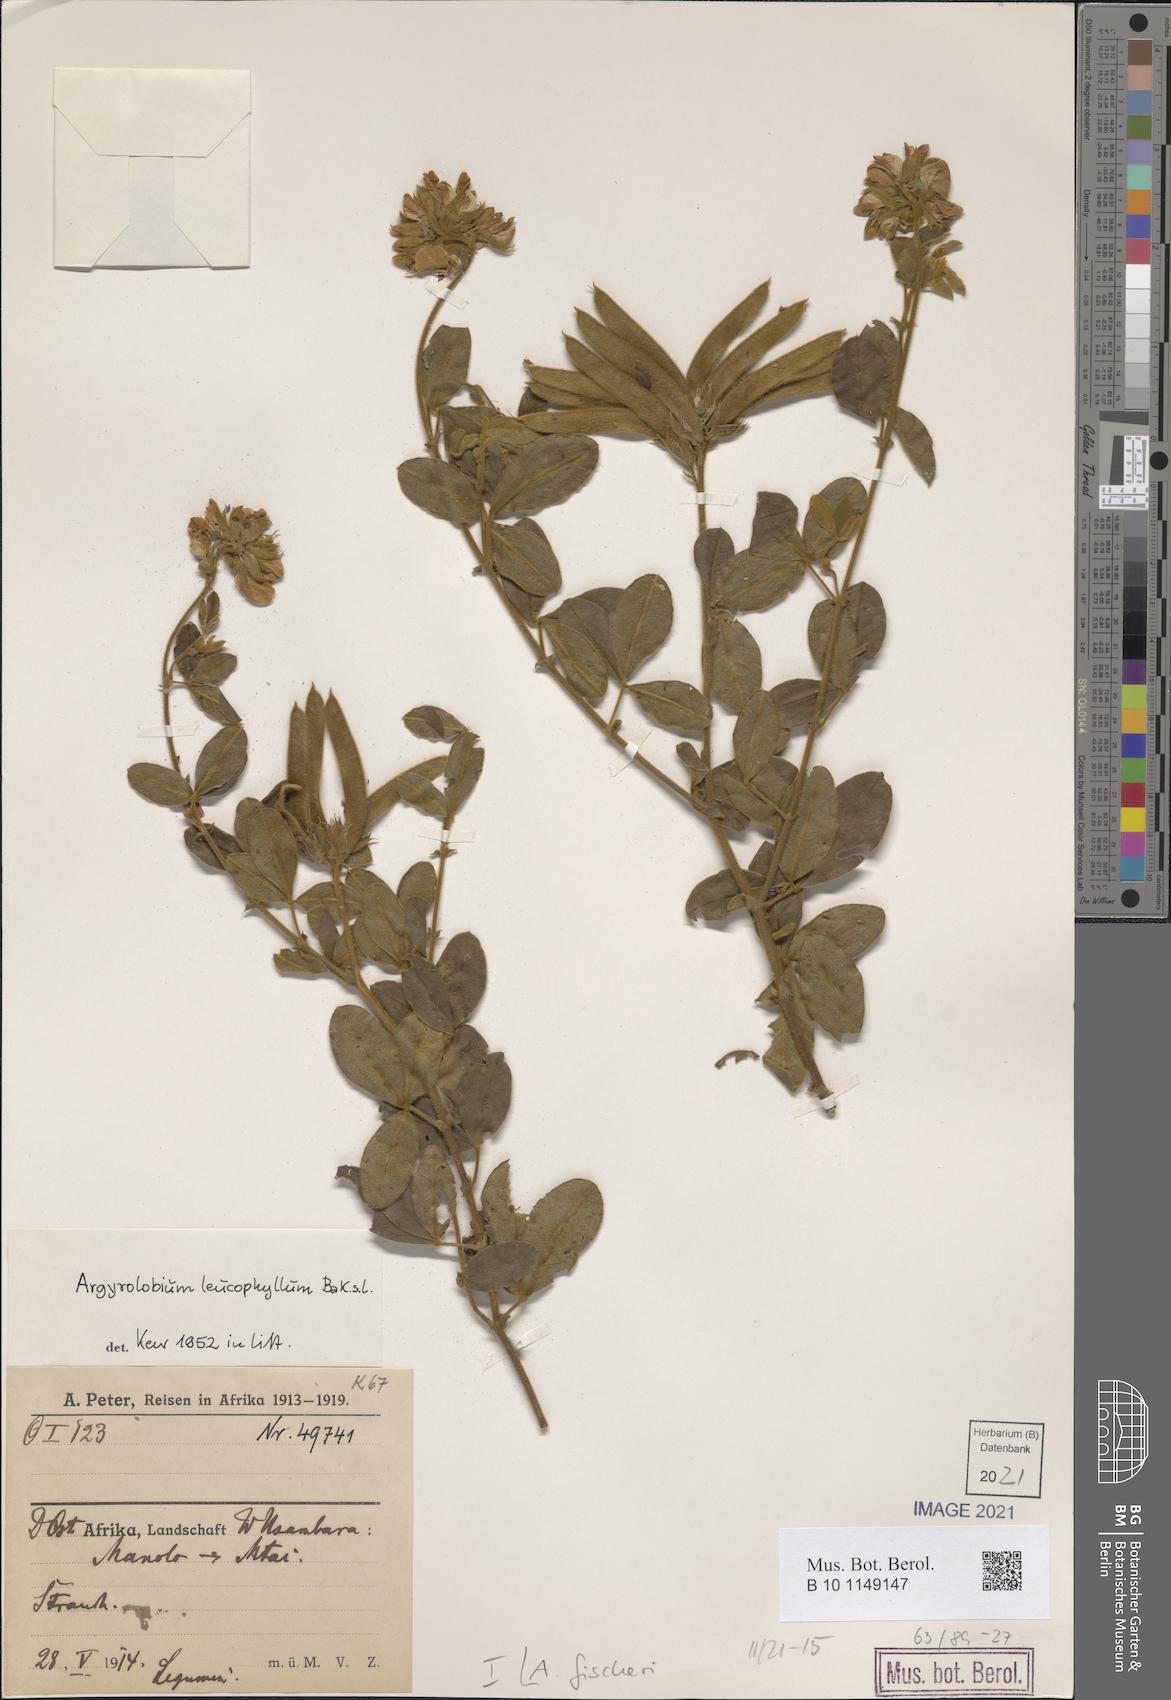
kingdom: Plantae
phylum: Tracheophyta
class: Magnoliopsida
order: Fabales
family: Fabaceae
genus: Argyrolobium
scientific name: Argyrolobium fischeri
